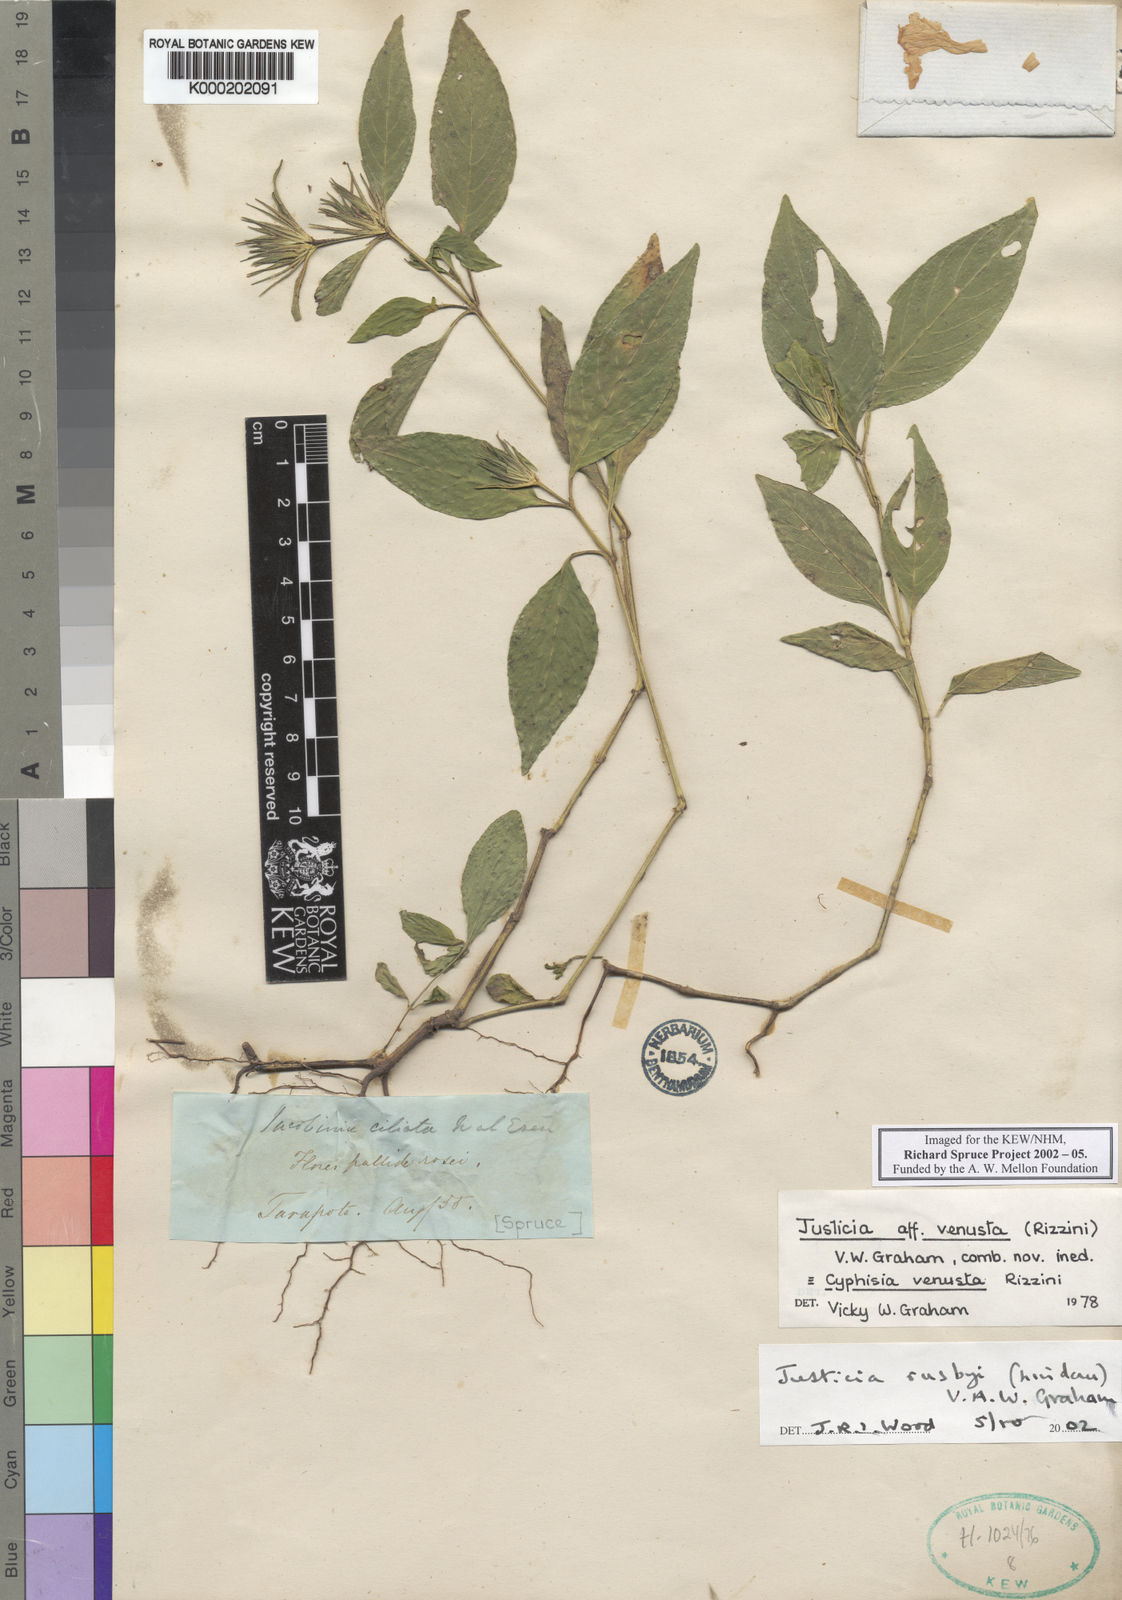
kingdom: Plantae
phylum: Tracheophyta
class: Magnoliopsida
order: Lamiales
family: Acanthaceae
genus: Justicia
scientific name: Justicia rusbyi
